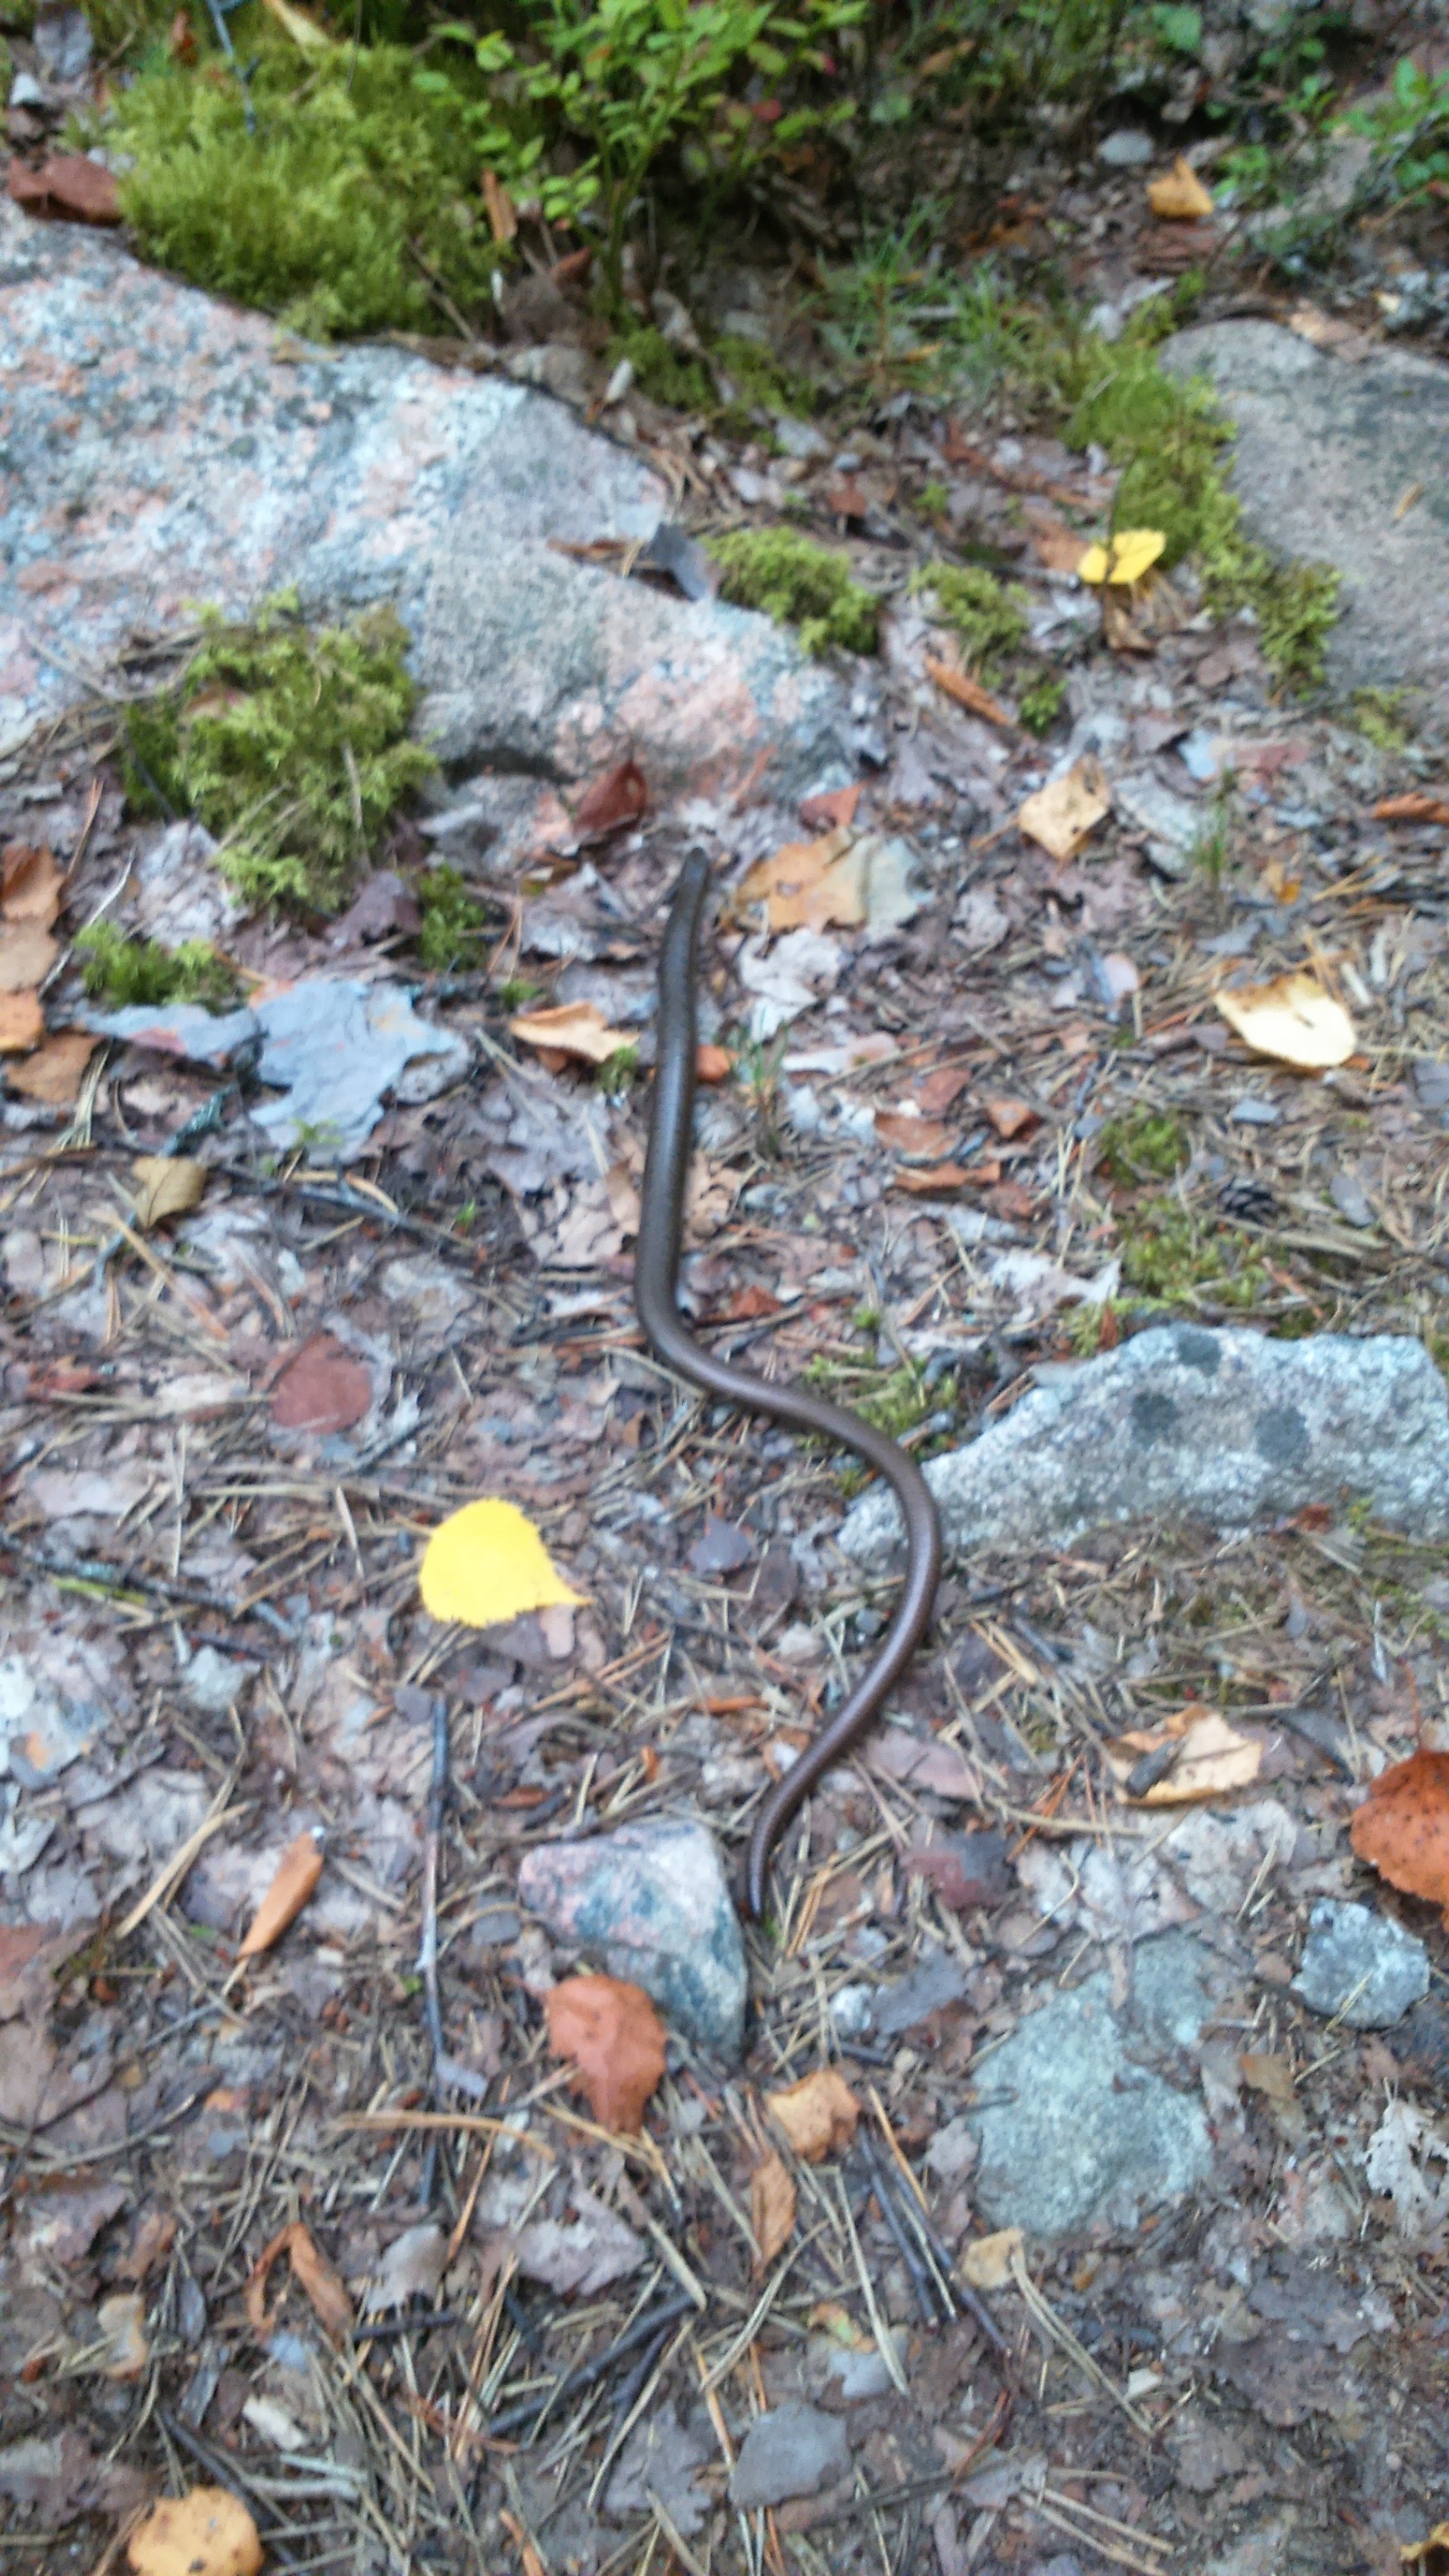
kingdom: Animalia
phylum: Chordata
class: Squamata
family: Anguidae
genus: Anguis
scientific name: Anguis colchica
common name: Slow worm
